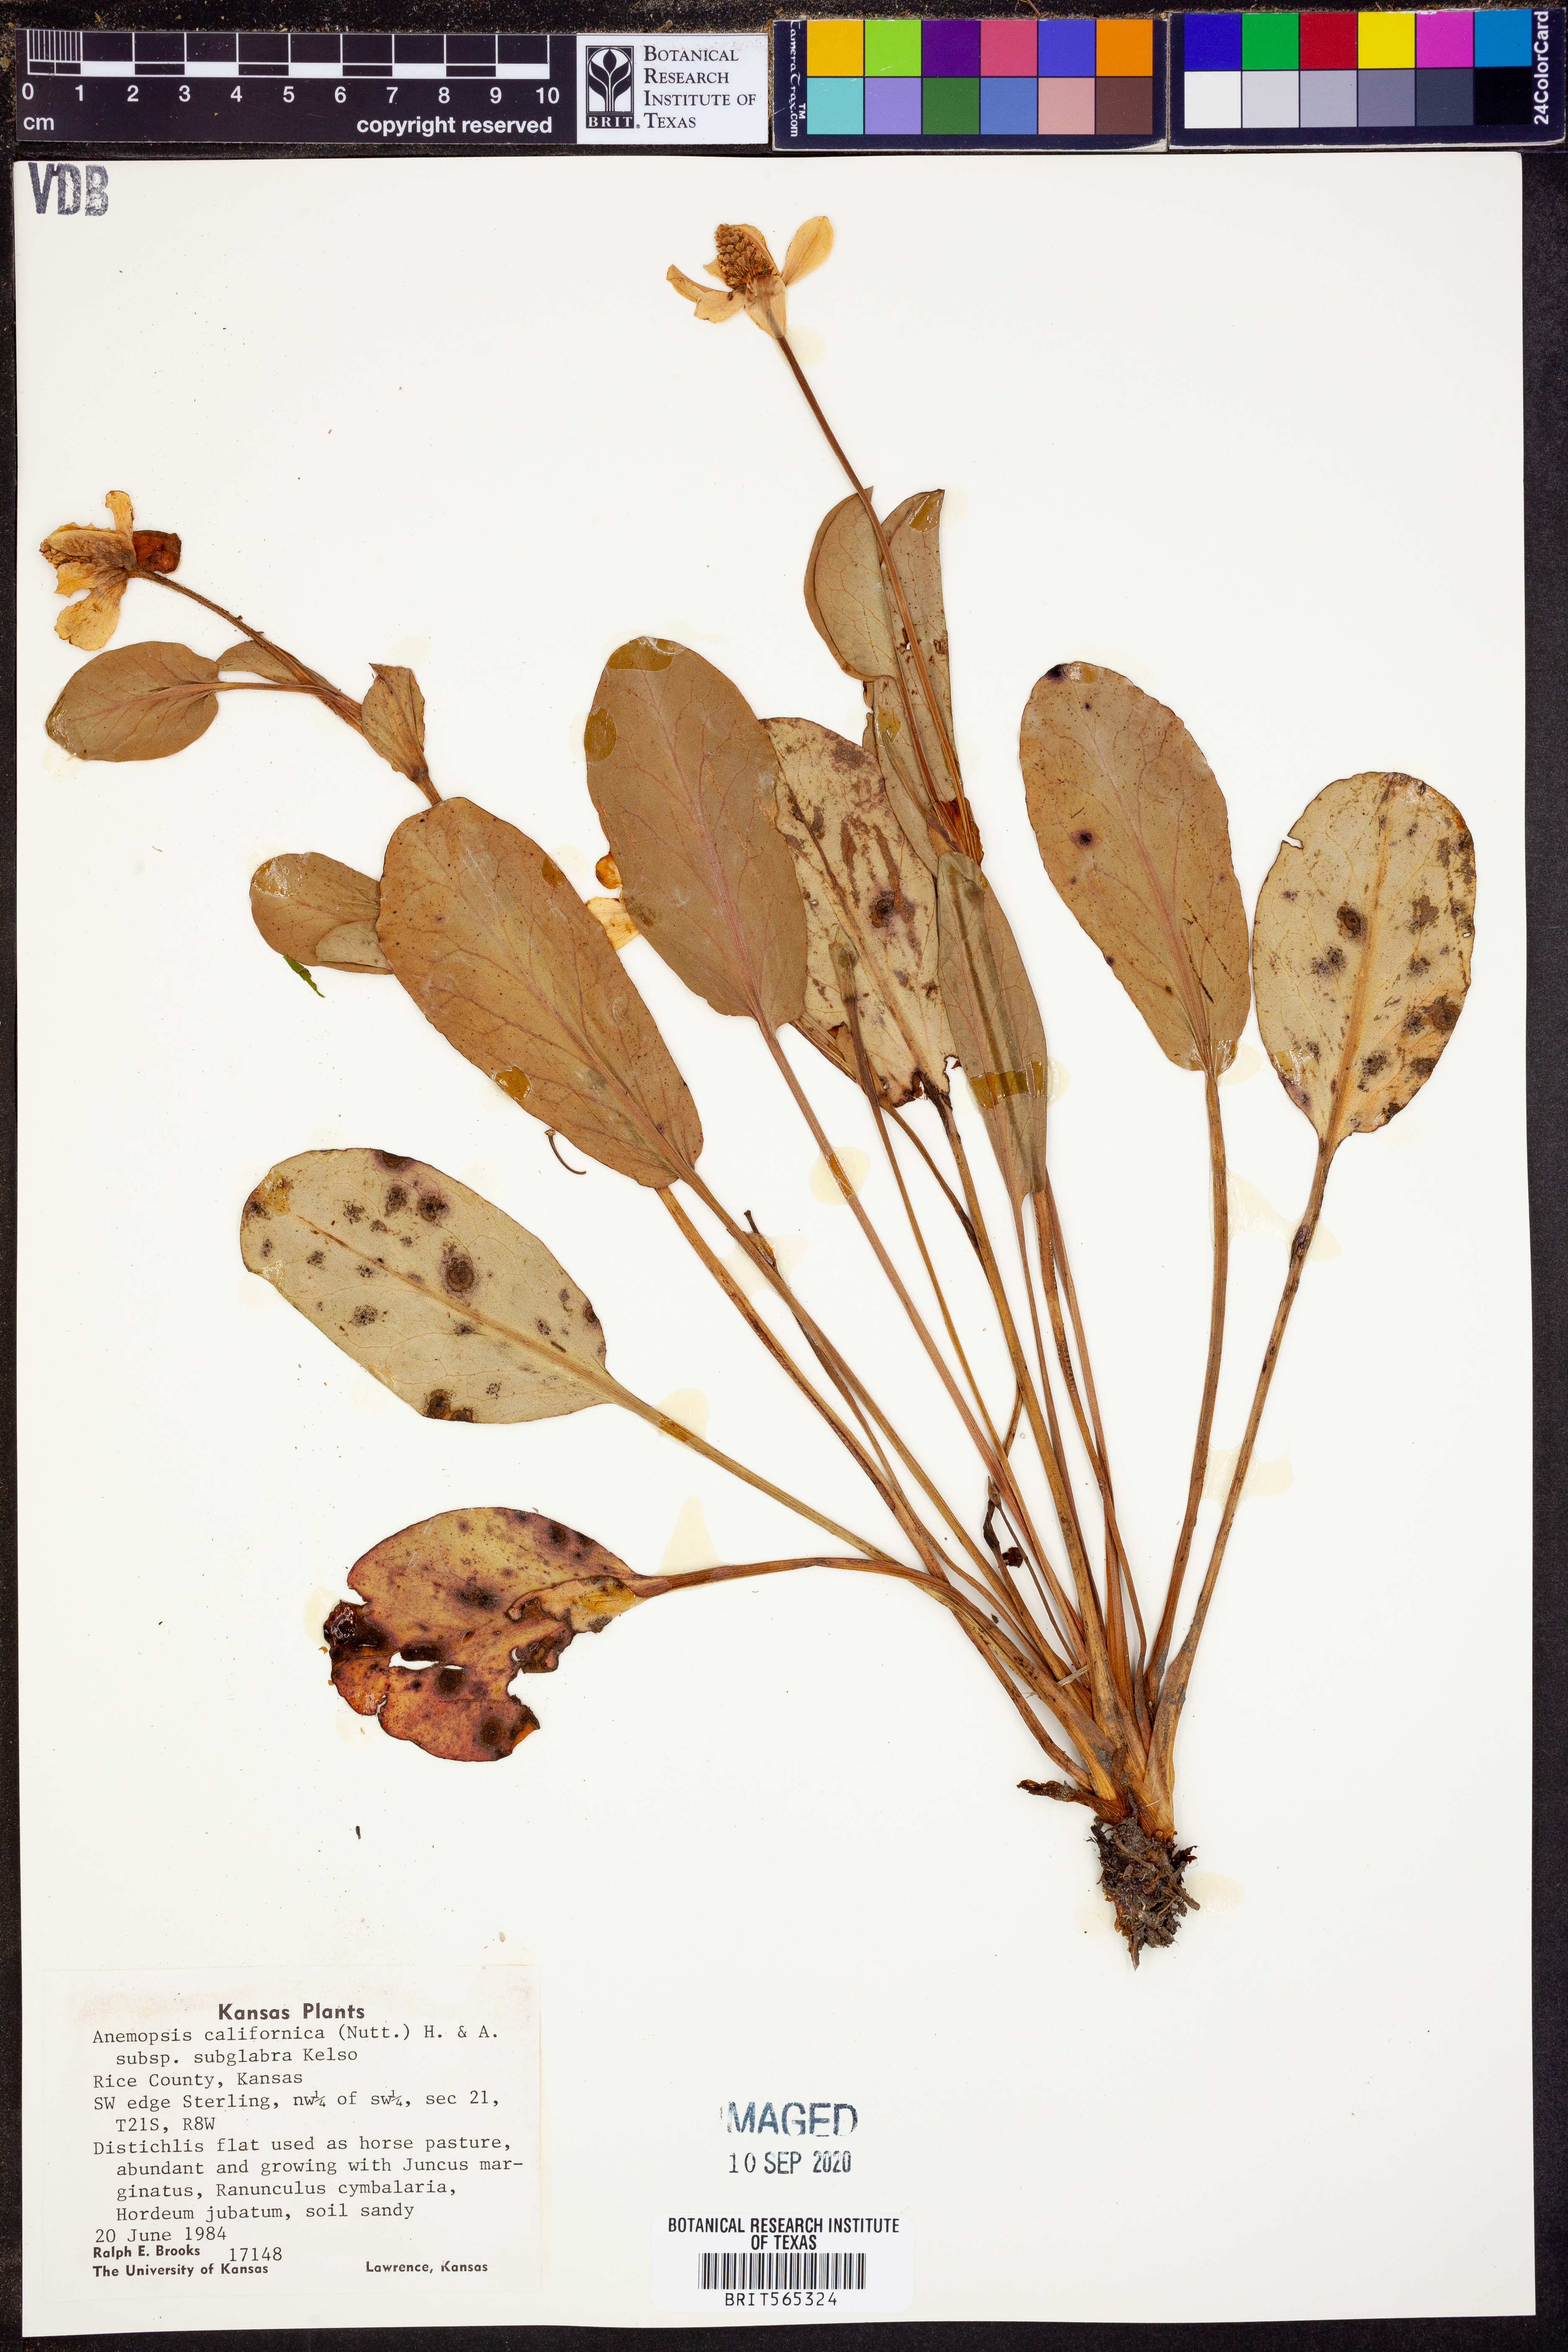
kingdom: Plantae
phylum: Tracheophyta
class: Magnoliopsida
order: Piperales
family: Saururaceae
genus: Anemopsis
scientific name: Anemopsis californica
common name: Apache-beads
